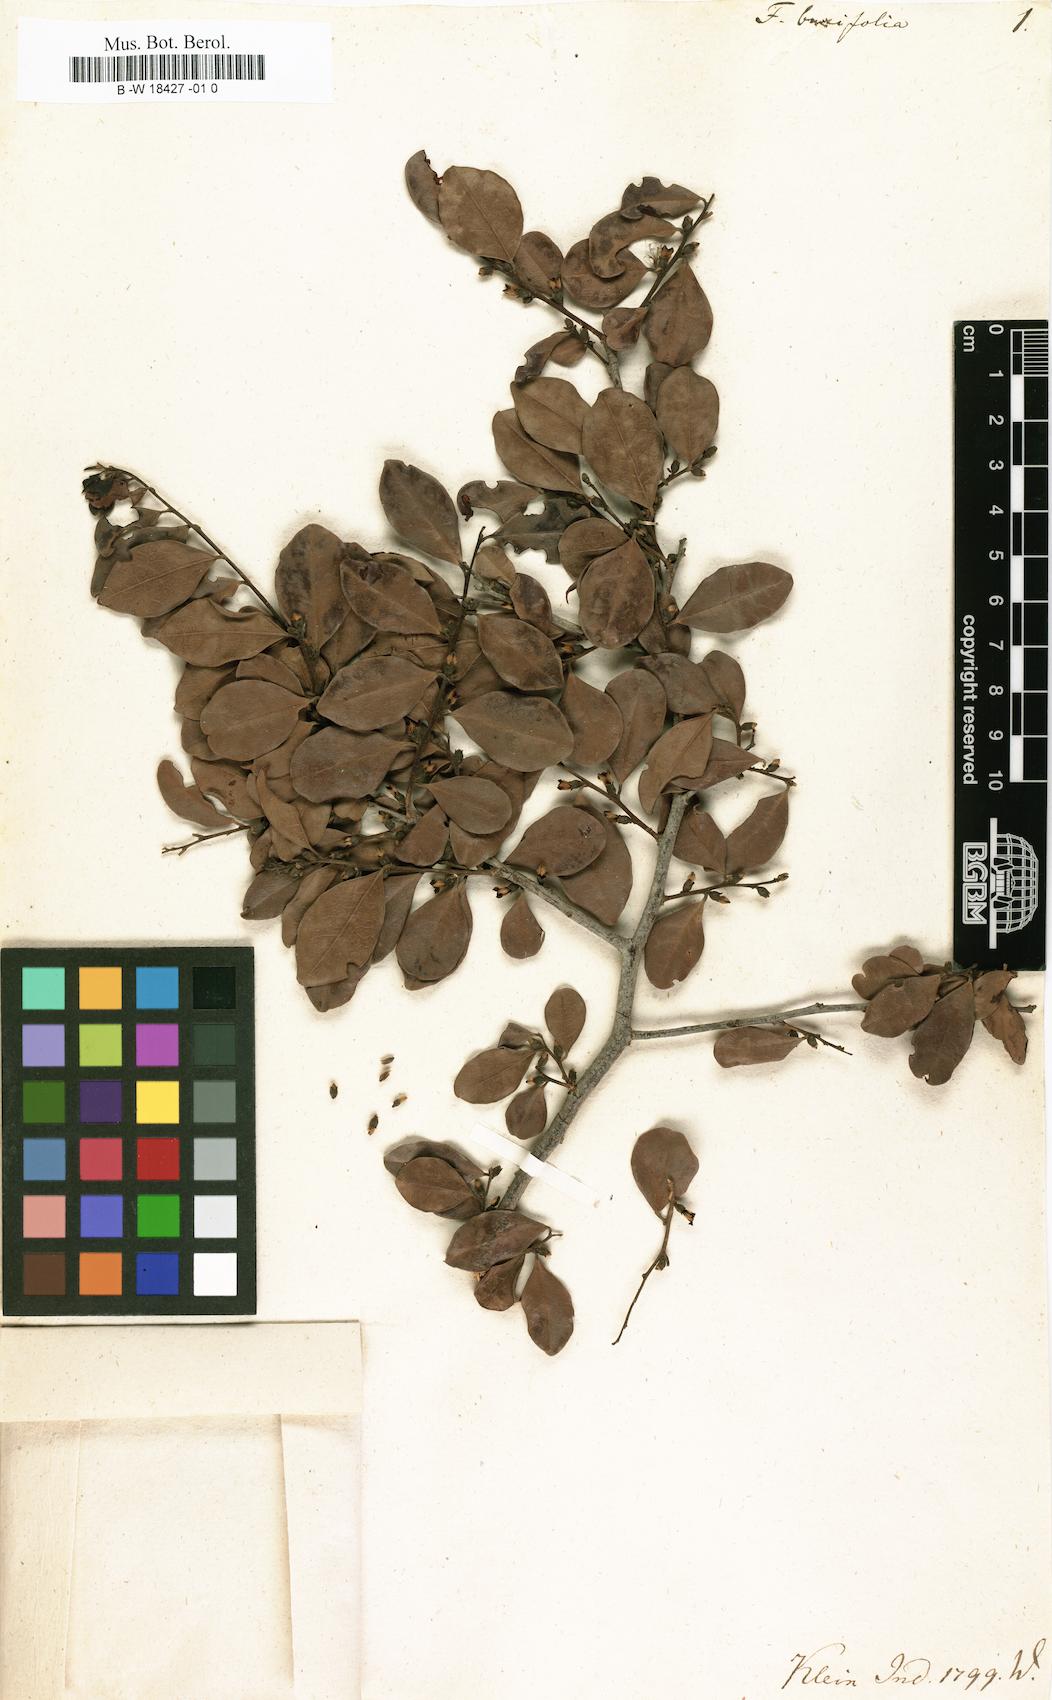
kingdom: Plantae
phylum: Tracheophyta
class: Magnoliopsida
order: Ericales
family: Ebenaceae
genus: Diospyros
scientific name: Diospyros ferrea
